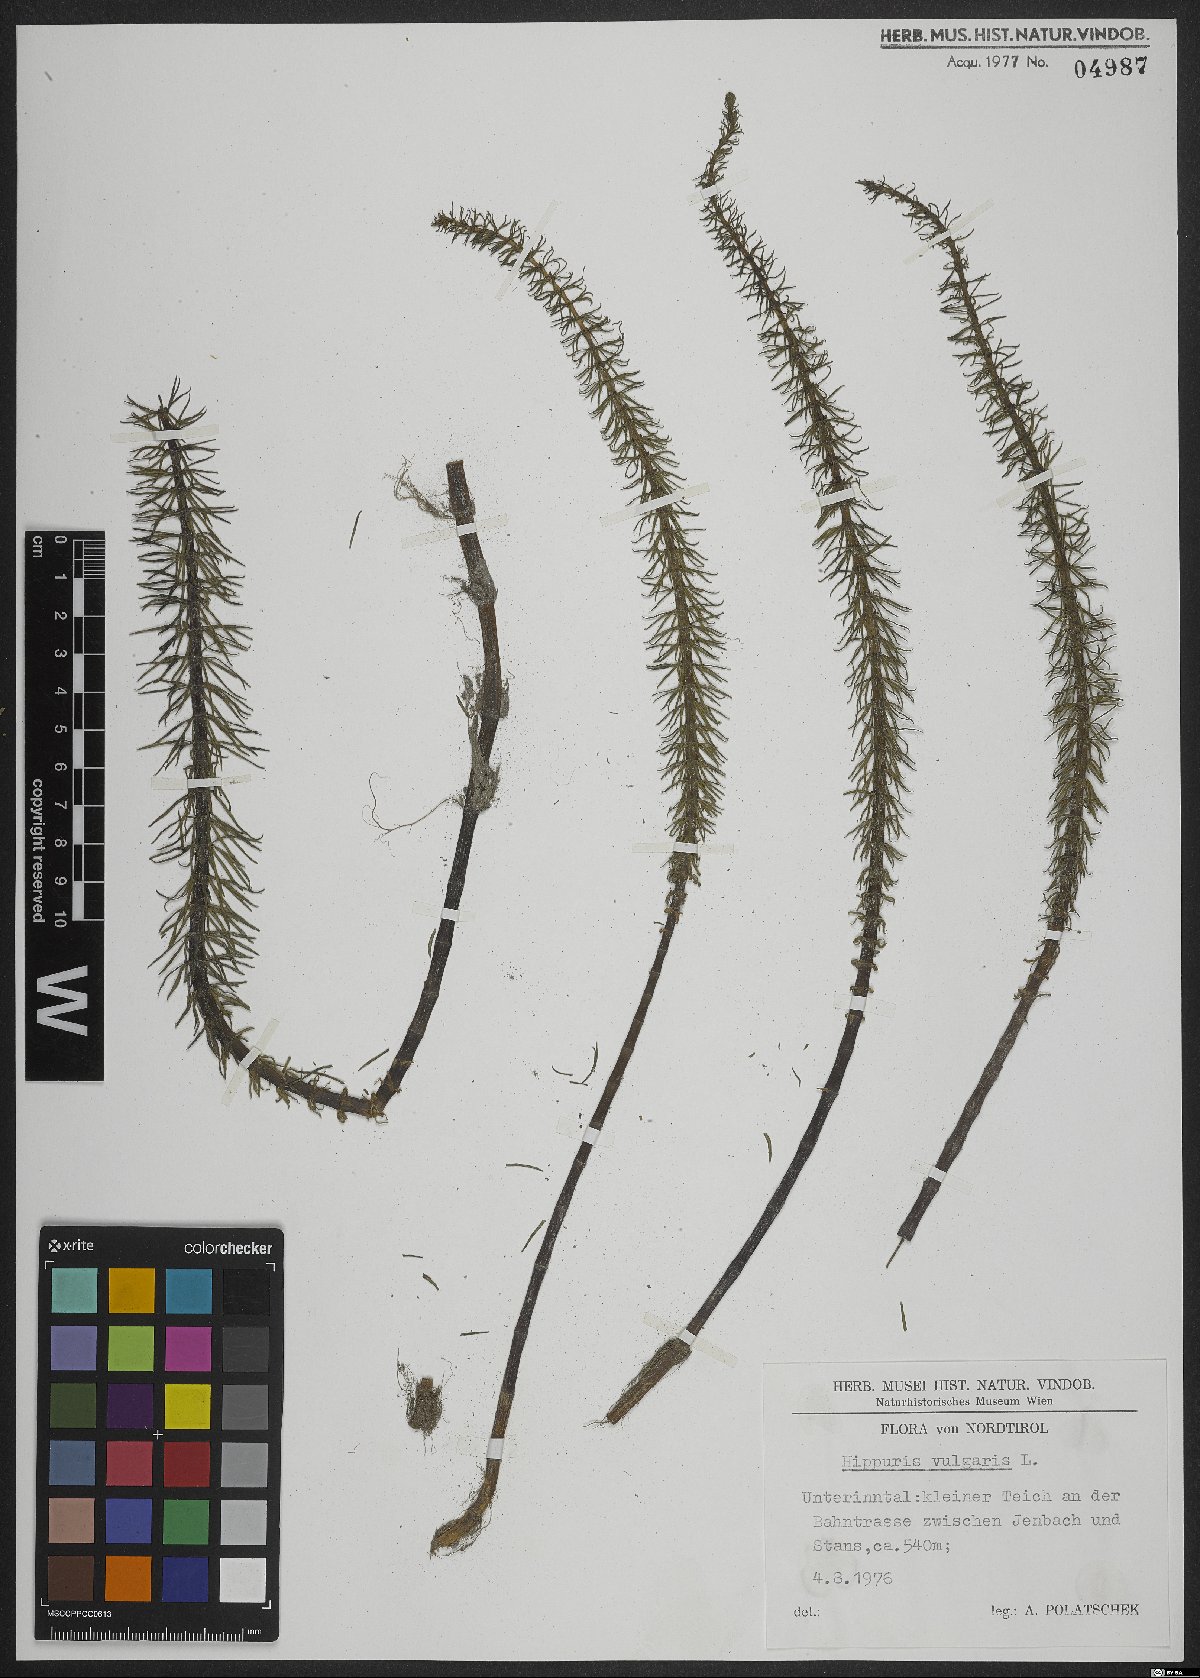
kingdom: Plantae
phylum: Tracheophyta
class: Magnoliopsida
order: Lamiales
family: Plantaginaceae
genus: Hippuris
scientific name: Hippuris vulgaris
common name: Mare's-tail
